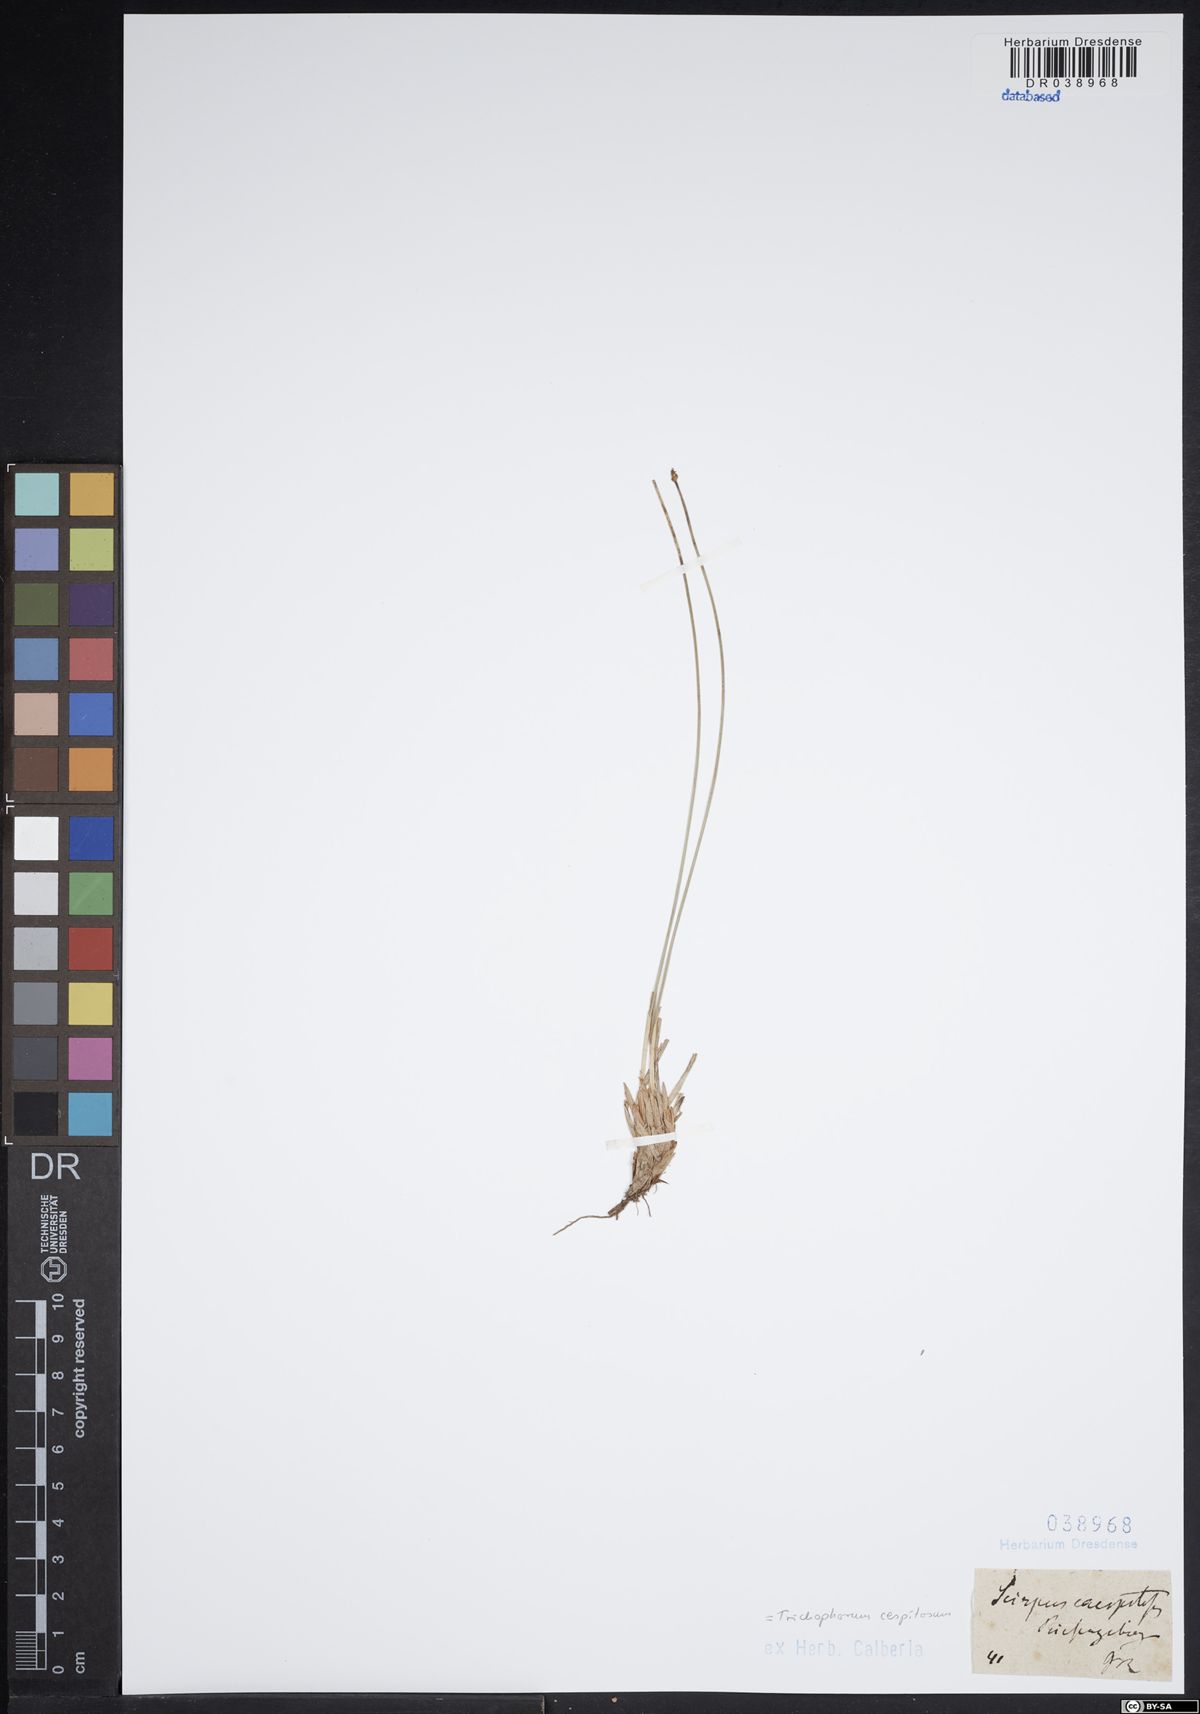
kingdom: Plantae
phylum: Tracheophyta
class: Liliopsida
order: Poales
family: Cyperaceae
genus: Trichophorum
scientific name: Trichophorum cespitosum
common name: Cespitose bulrush
